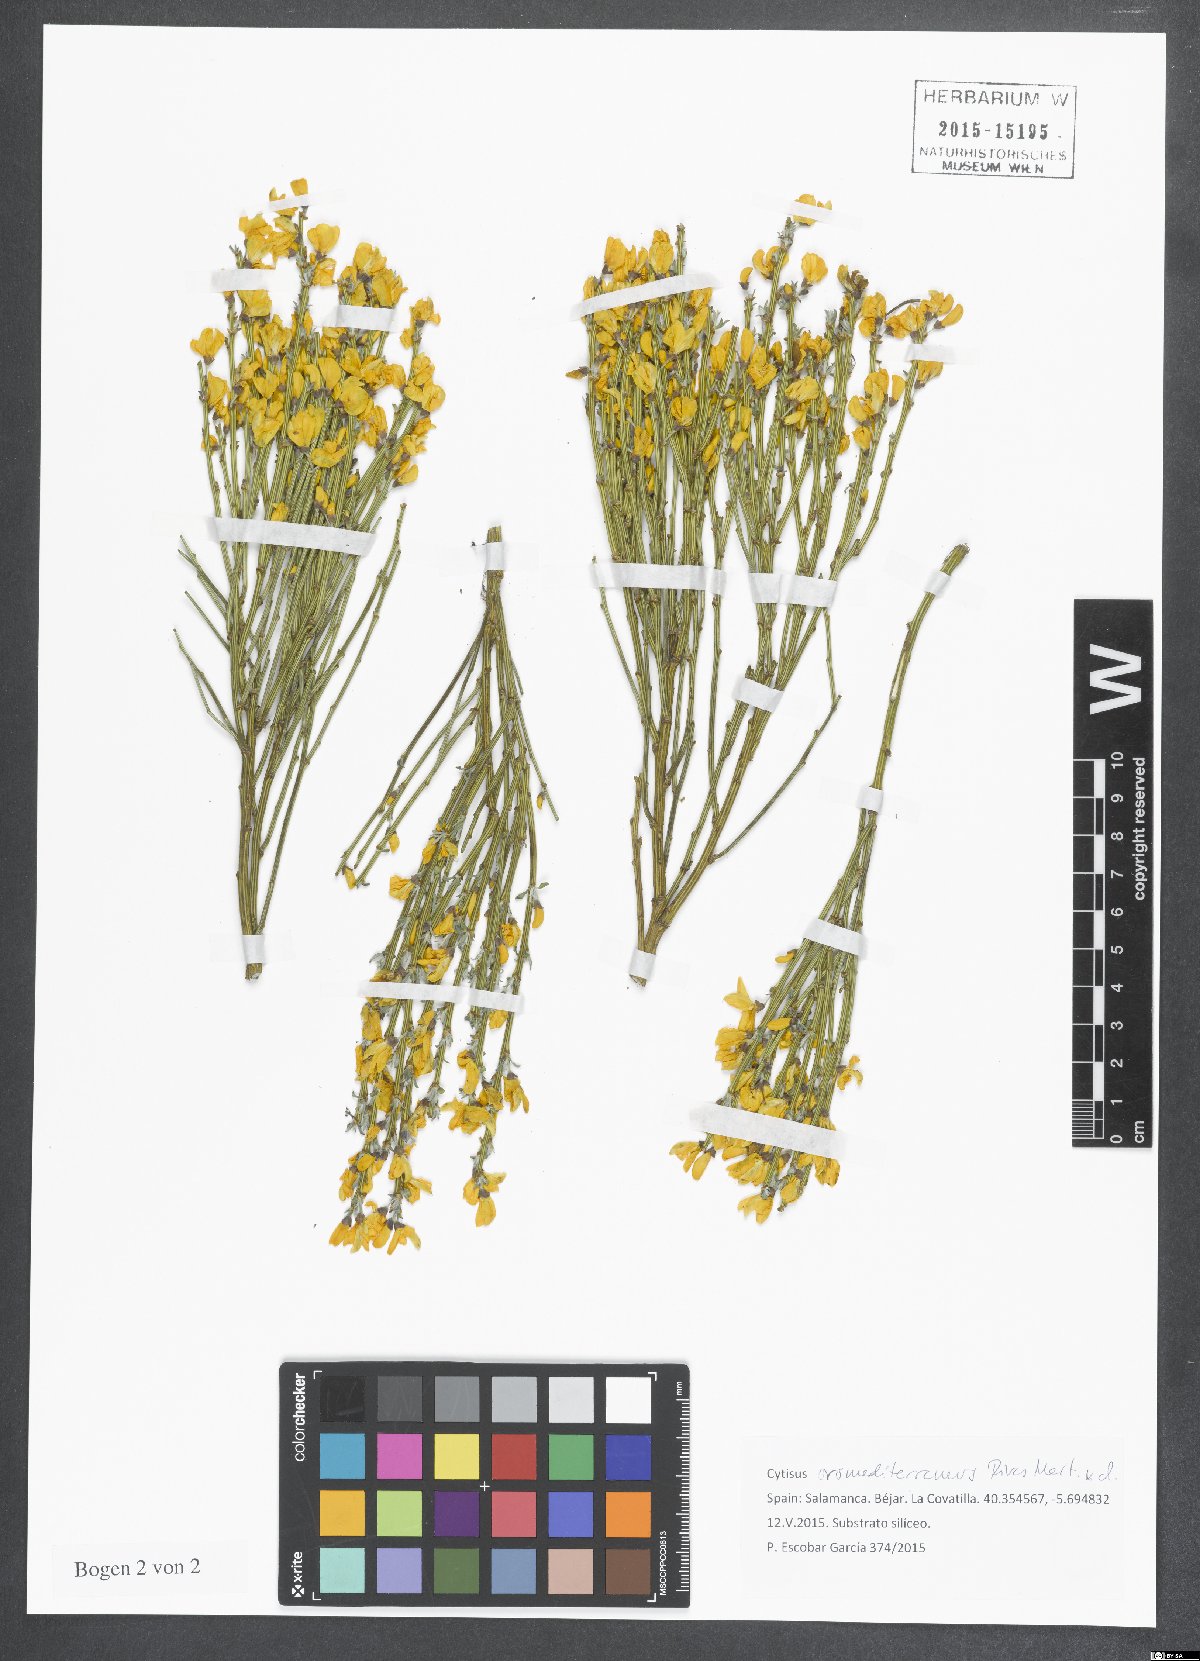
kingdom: Plantae
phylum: Tracheophyta
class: Magnoliopsida
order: Fabales
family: Fabaceae
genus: Cytisus
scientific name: Cytisus oromediterraneus
